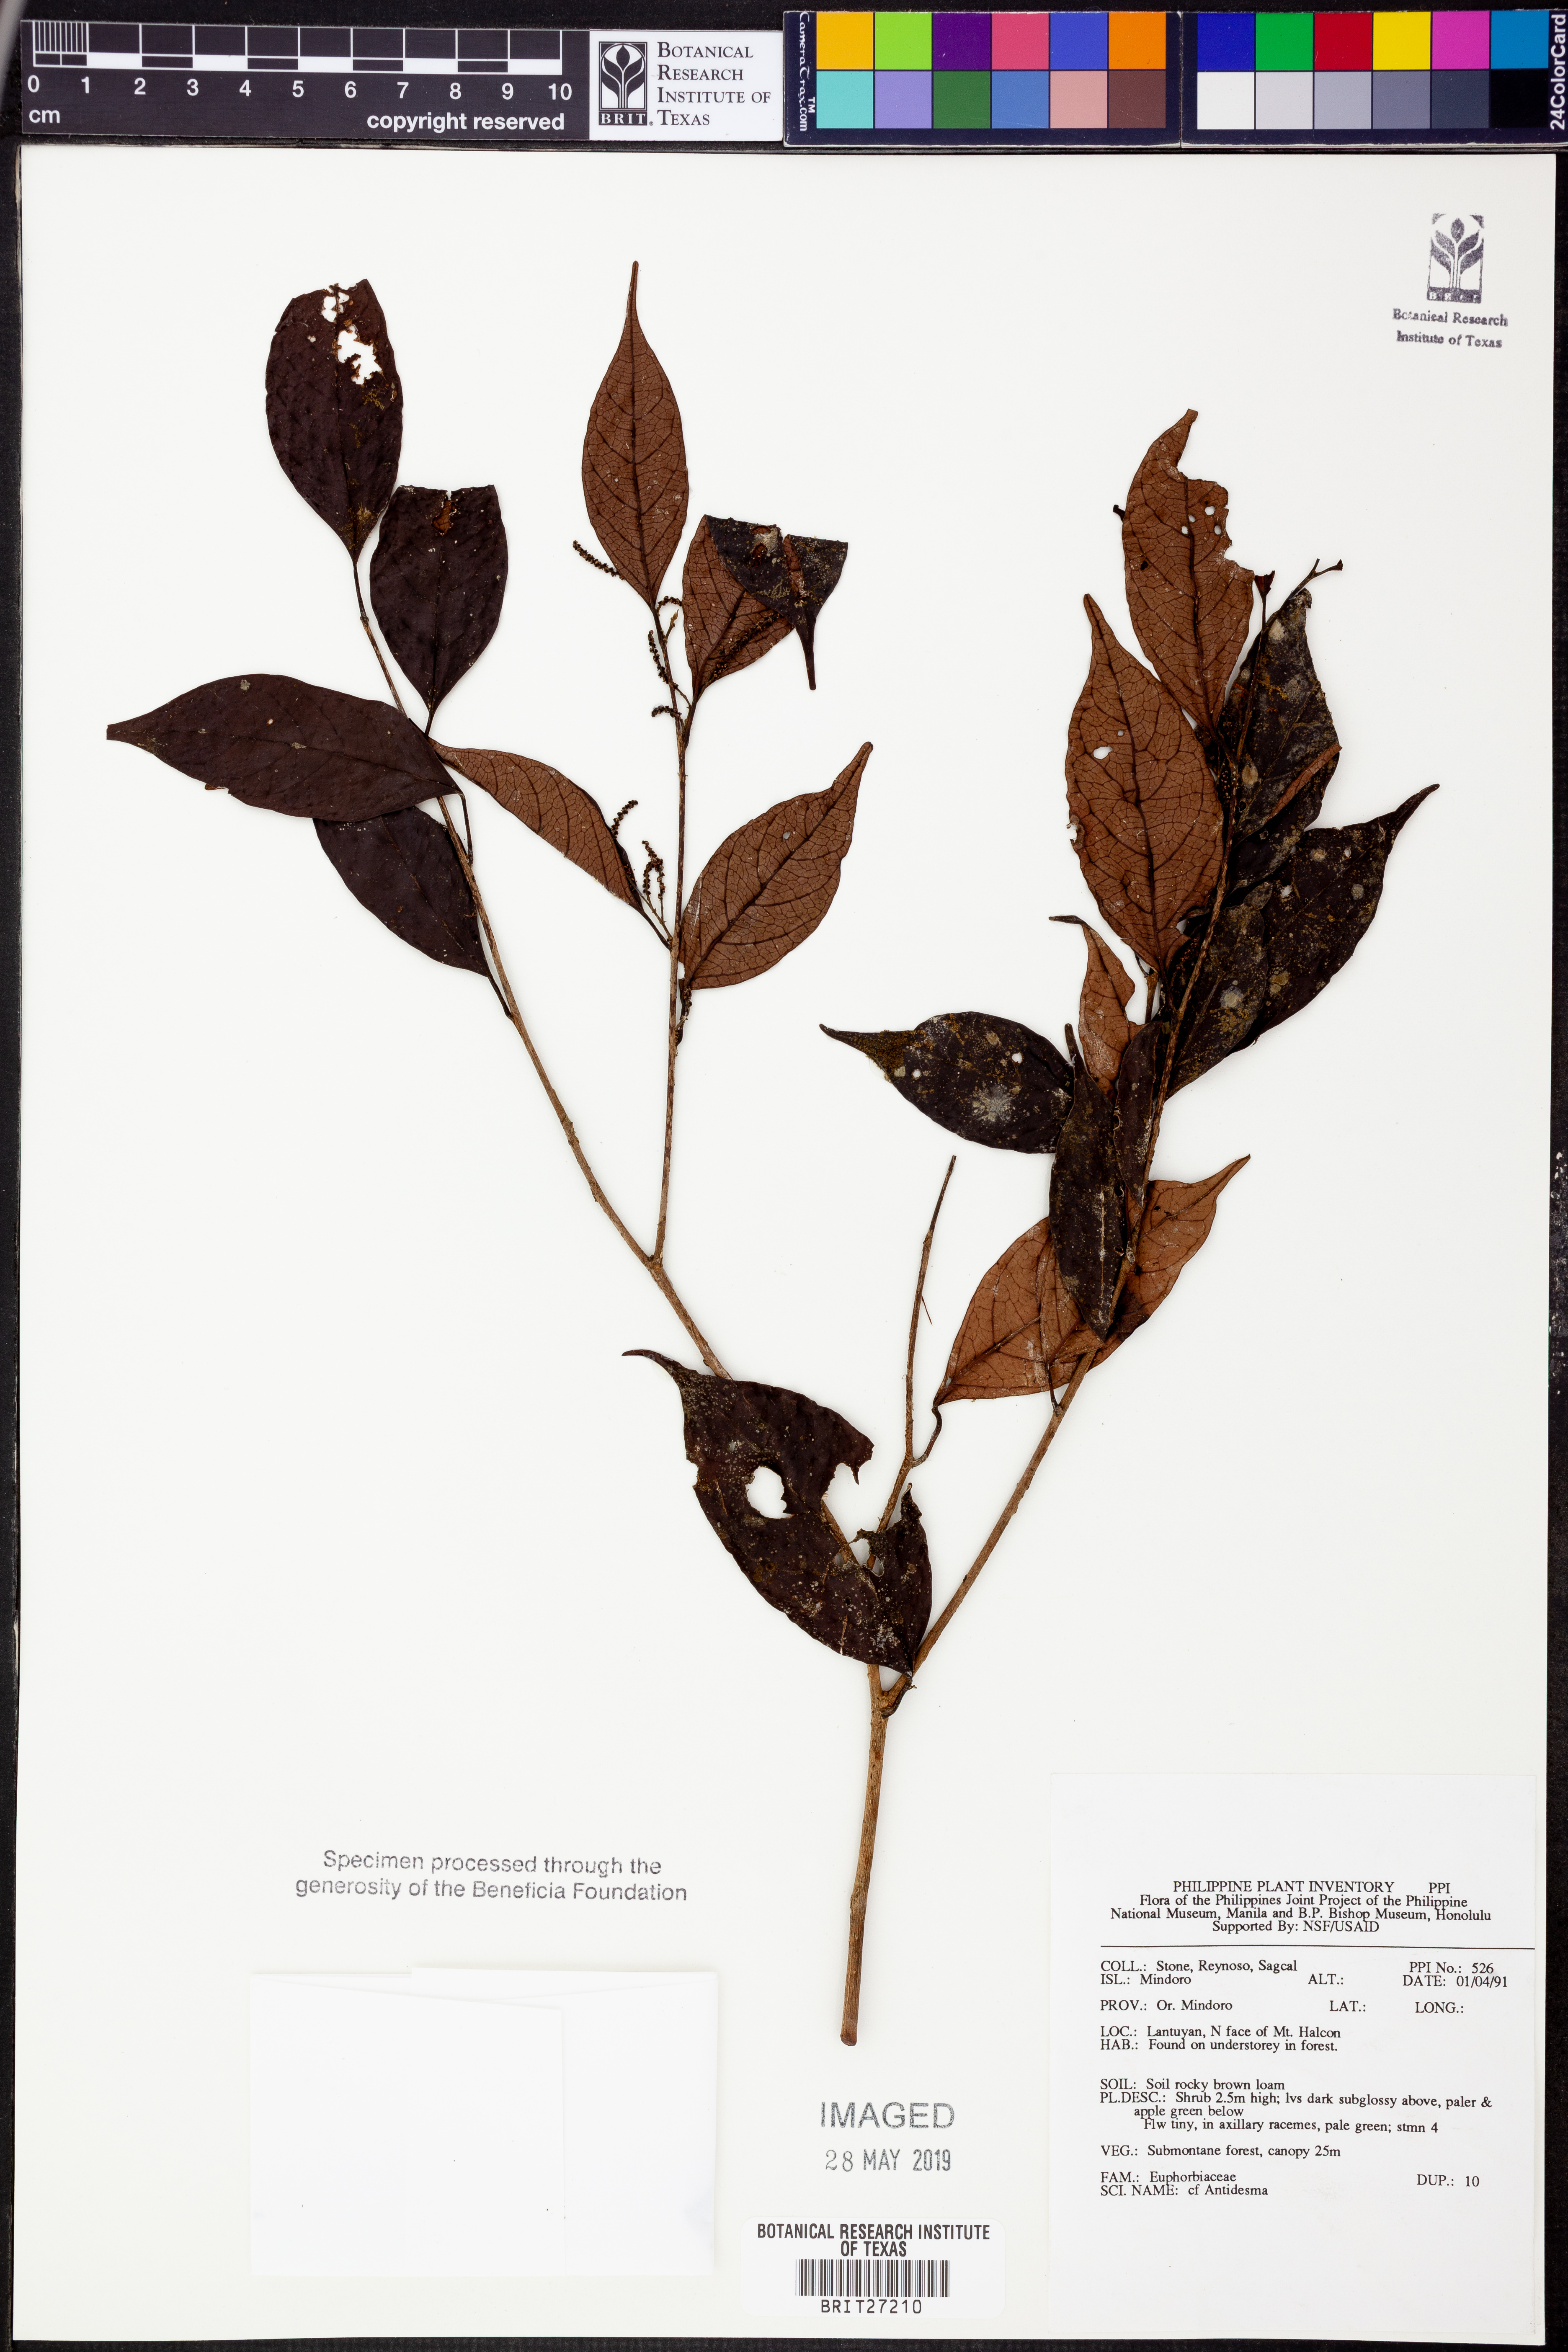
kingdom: Plantae
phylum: Tracheophyta
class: Magnoliopsida
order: Malpighiales
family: Phyllanthaceae
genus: Antidesma
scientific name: Antidesma
